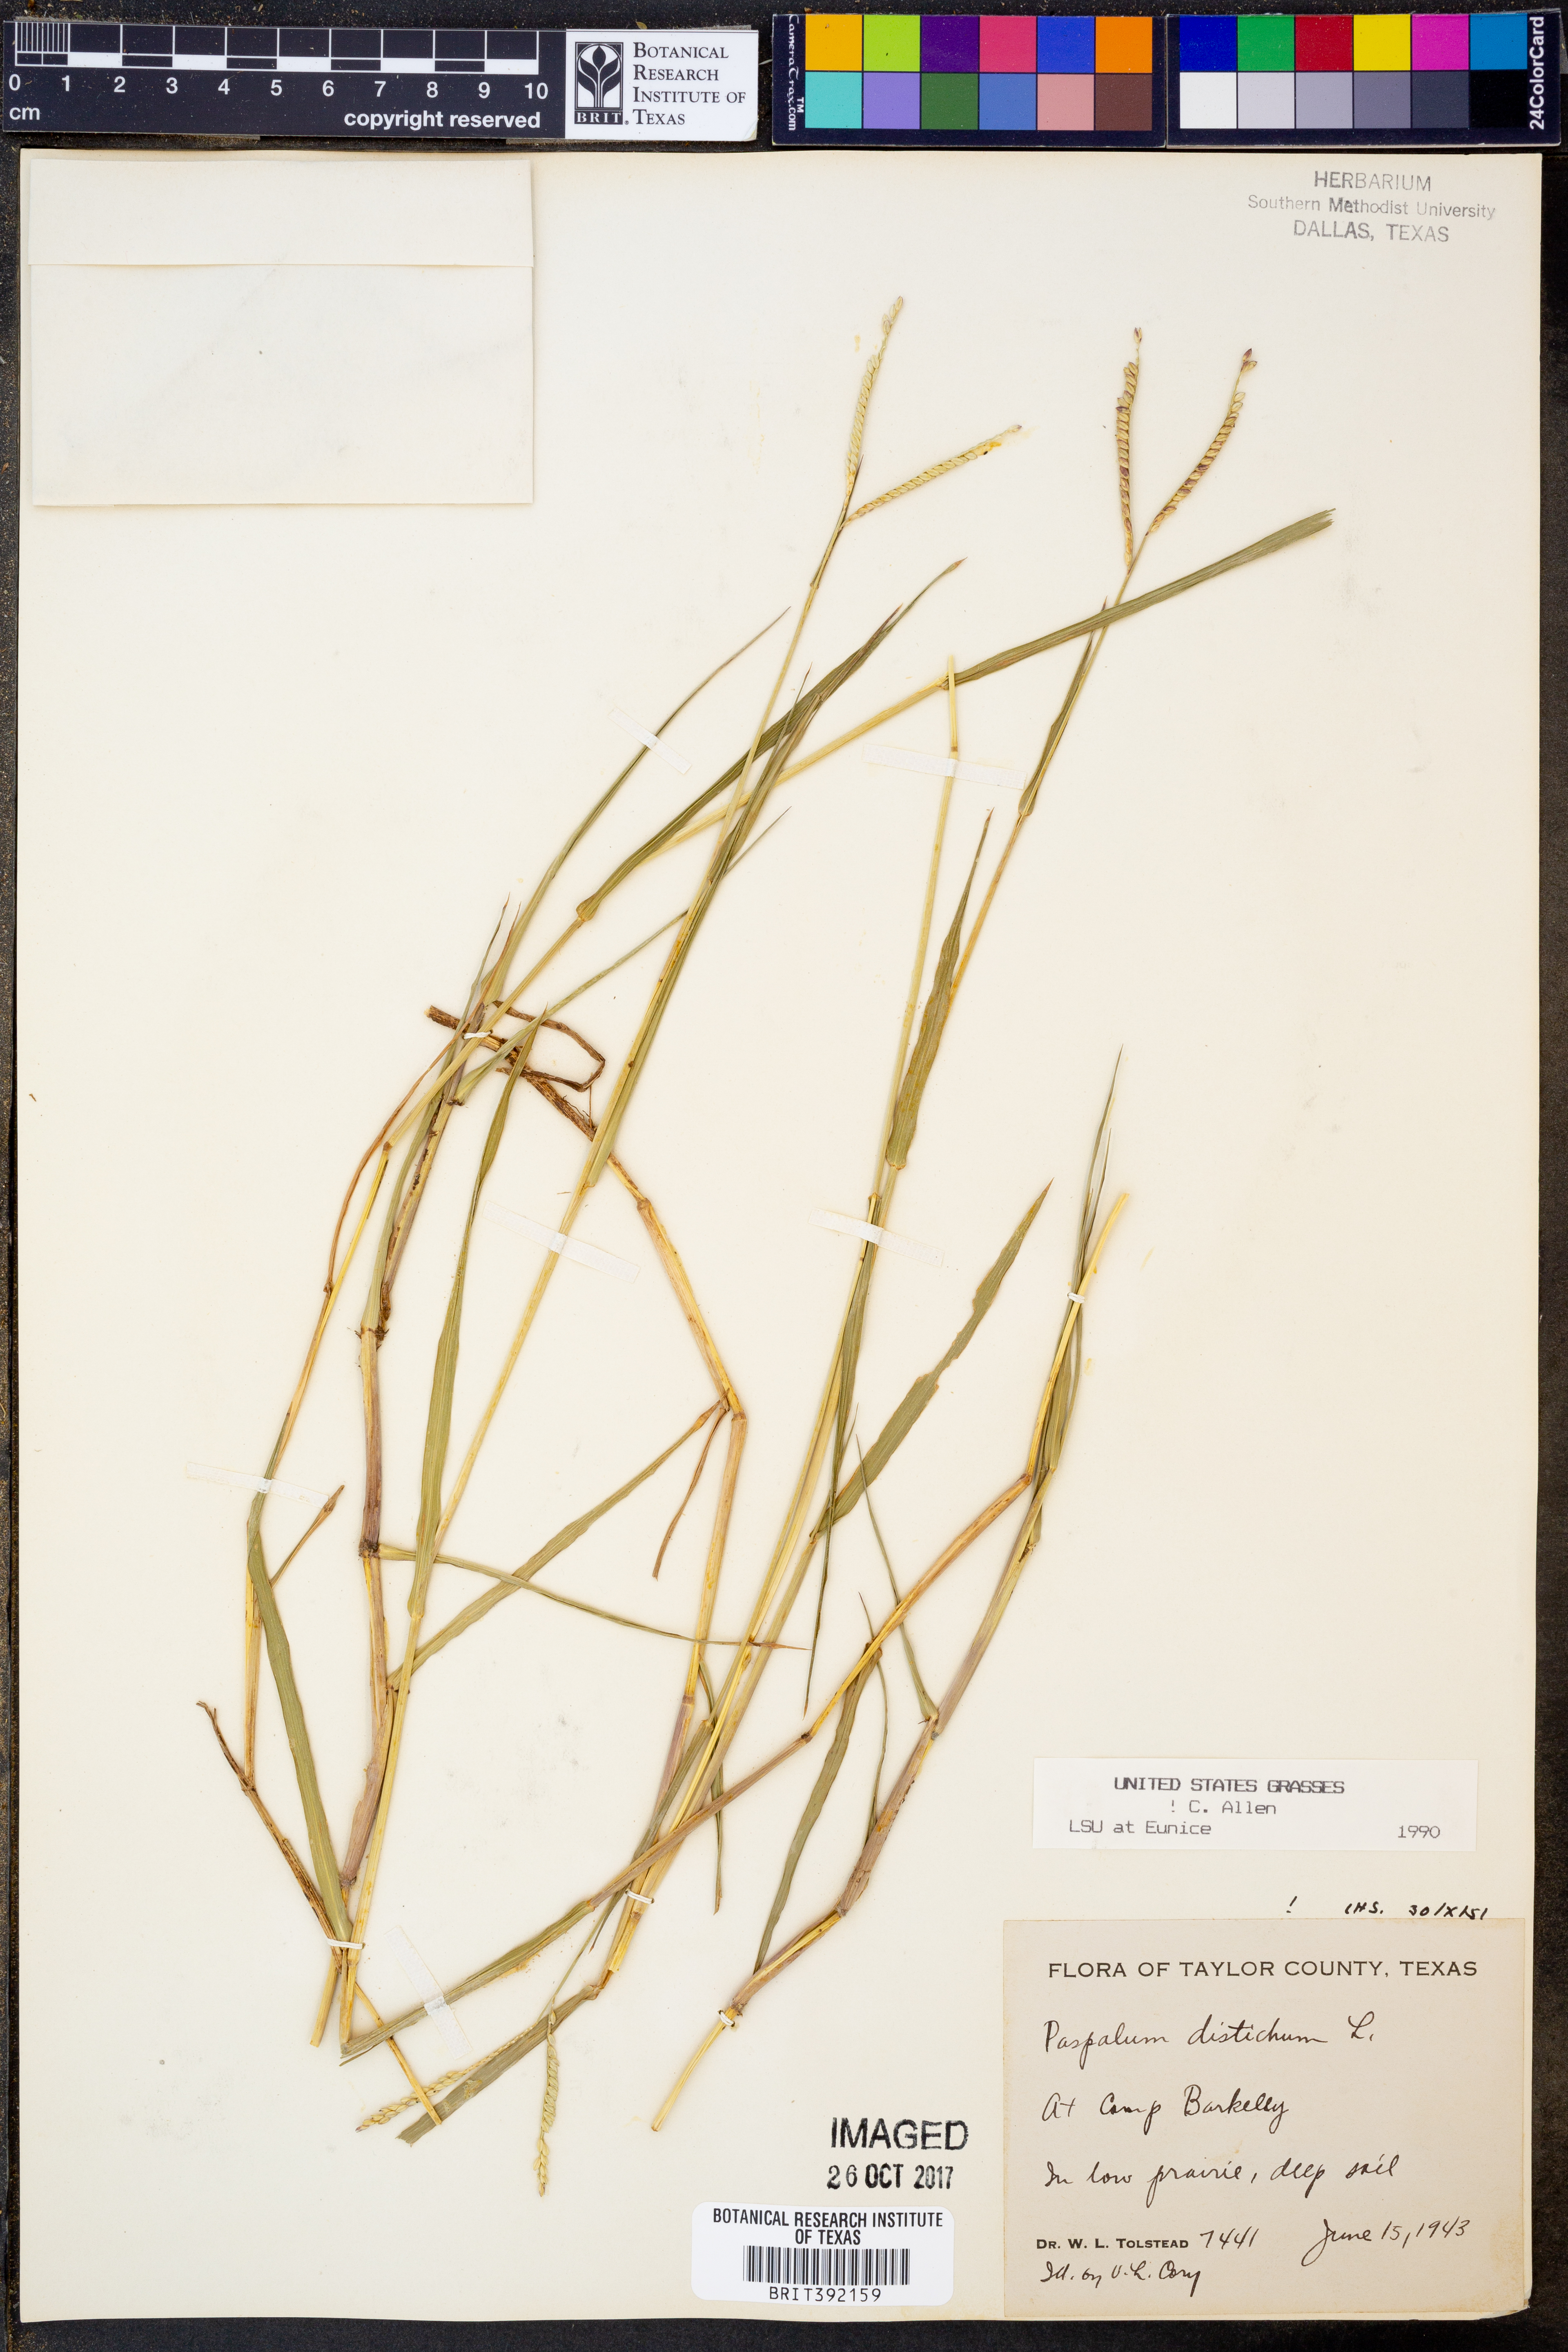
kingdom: Plantae
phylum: Tracheophyta
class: Liliopsida
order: Poales
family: Poaceae
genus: Paspalum
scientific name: Paspalum distichum
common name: Knotgrass
